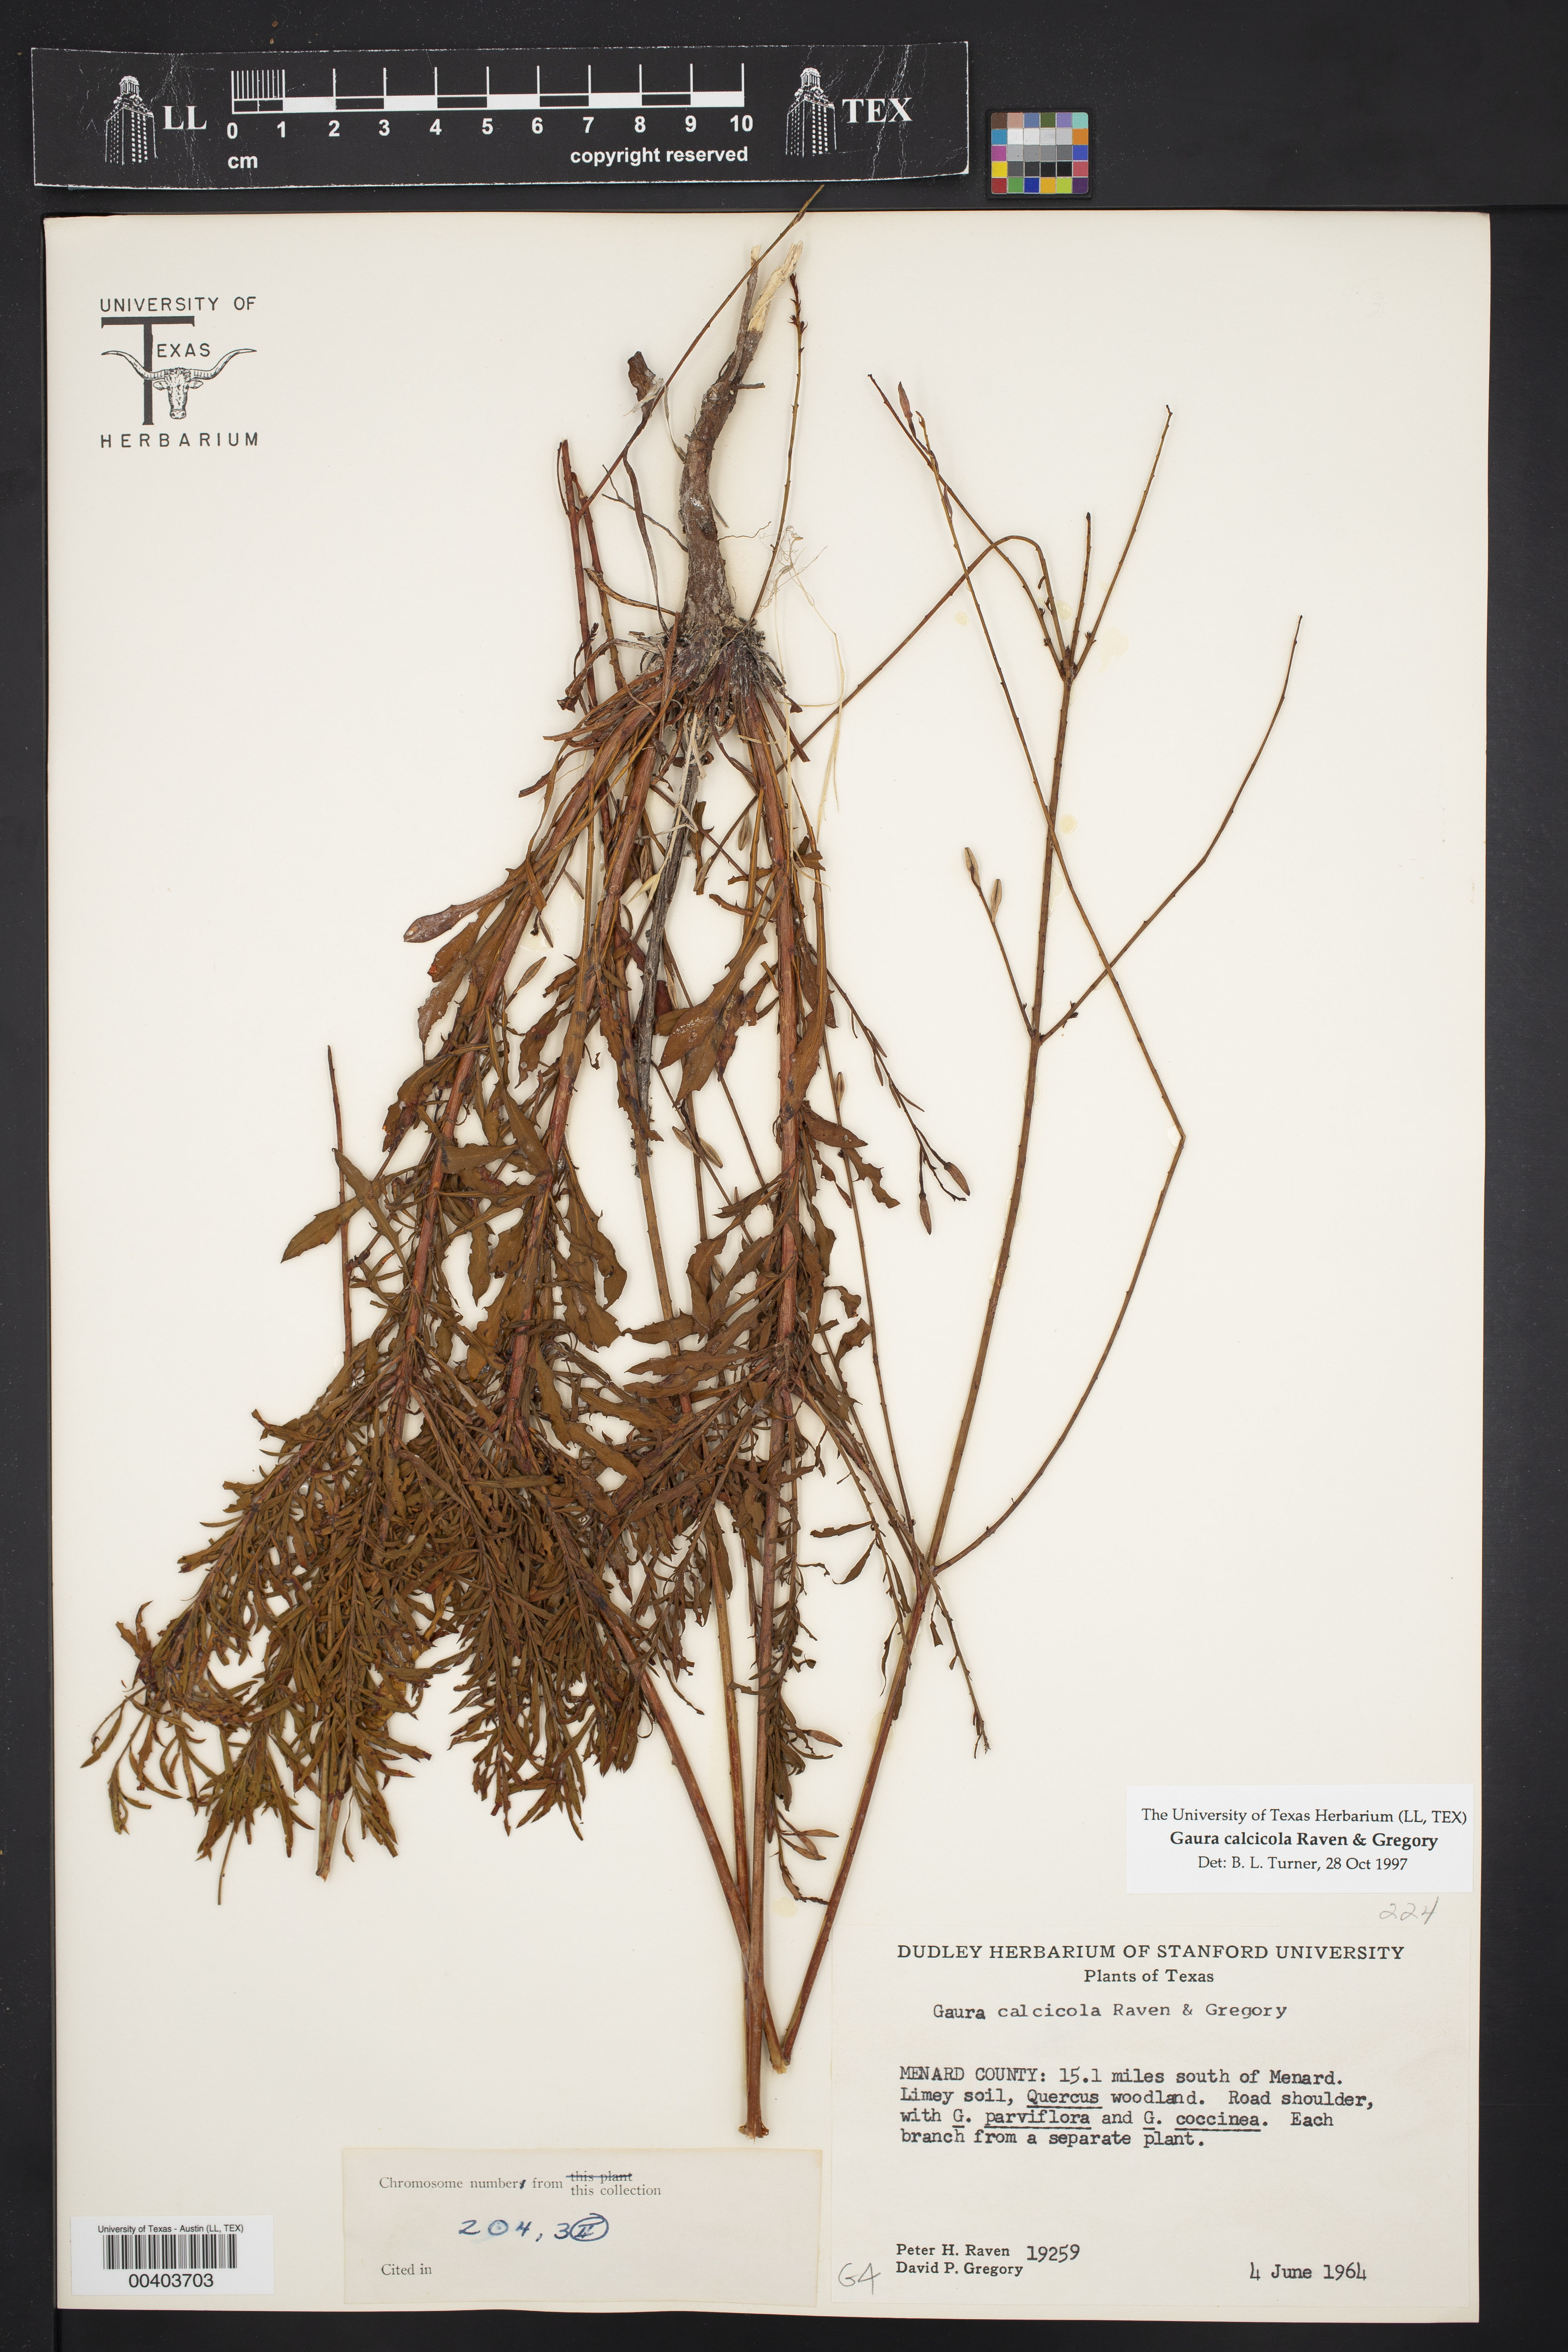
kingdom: Plantae
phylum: Tracheophyta
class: Magnoliopsida
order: Myrtales
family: Onagraceae
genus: Oenothera
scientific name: Oenothera calcicola
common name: Texas beeblossom
